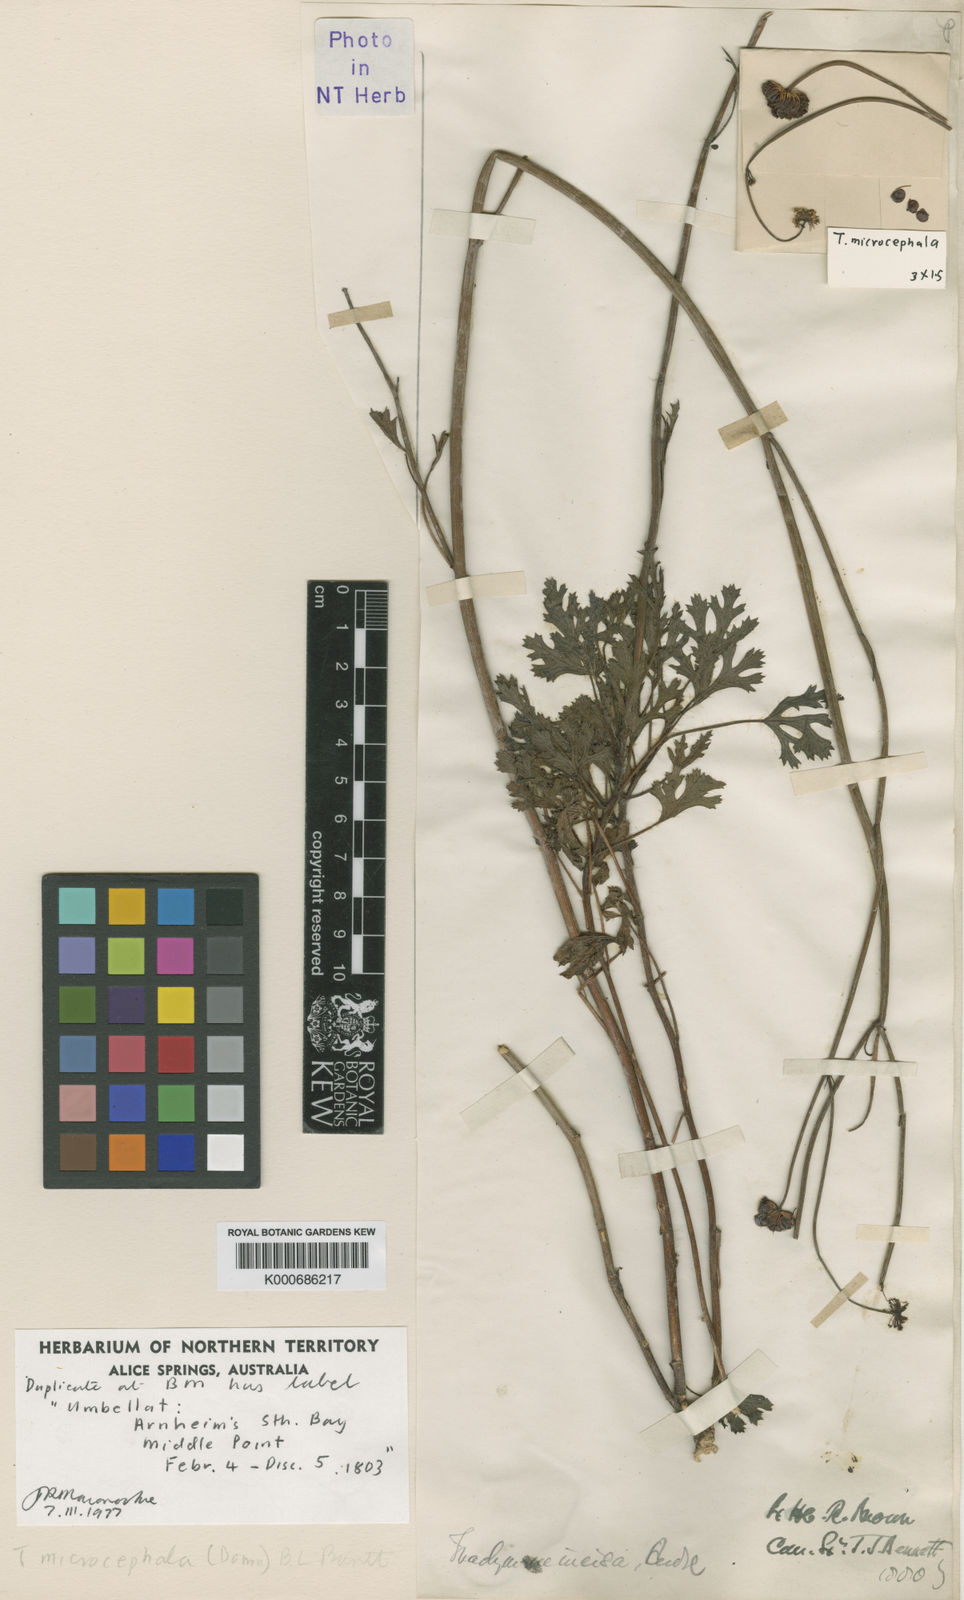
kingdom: Plantae
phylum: Tracheophyta
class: Magnoliopsida
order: Apiales
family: Araliaceae
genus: Trachymene
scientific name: Trachymene microcephala
